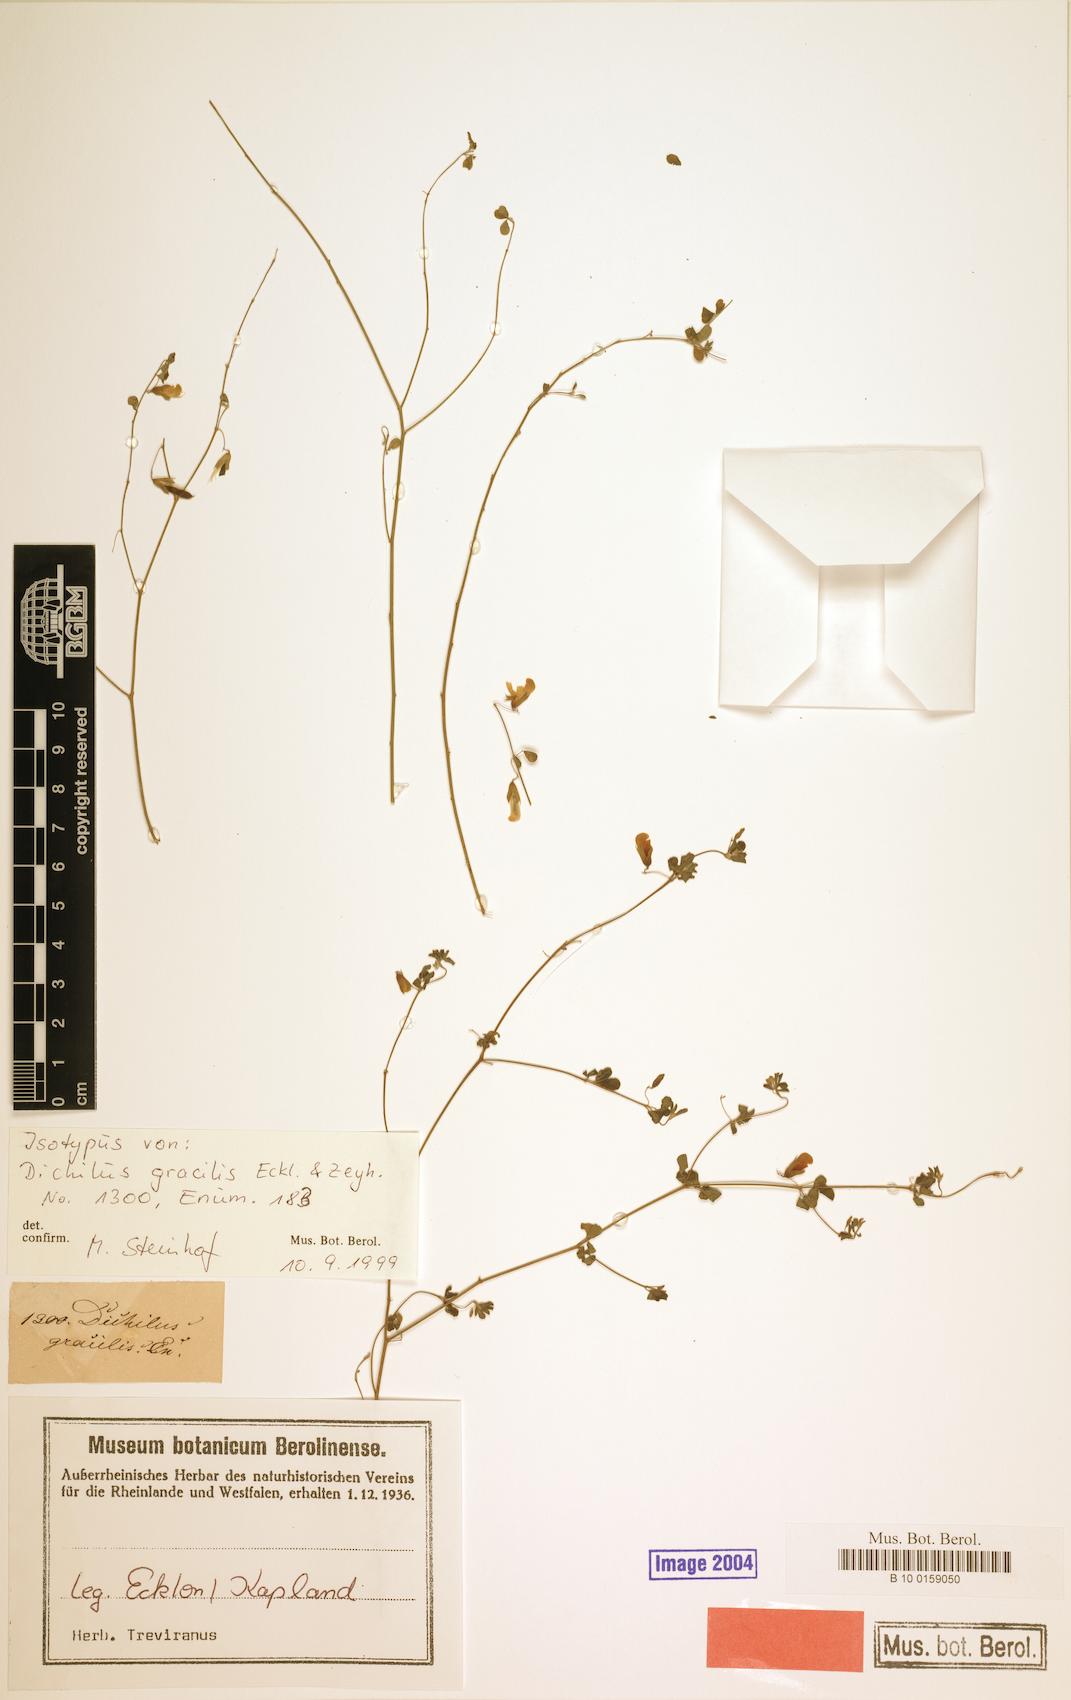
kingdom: Plantae
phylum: Tracheophyta
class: Magnoliopsida
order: Fabales
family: Fabaceae
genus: Dichilus
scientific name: Dichilus gracilis
